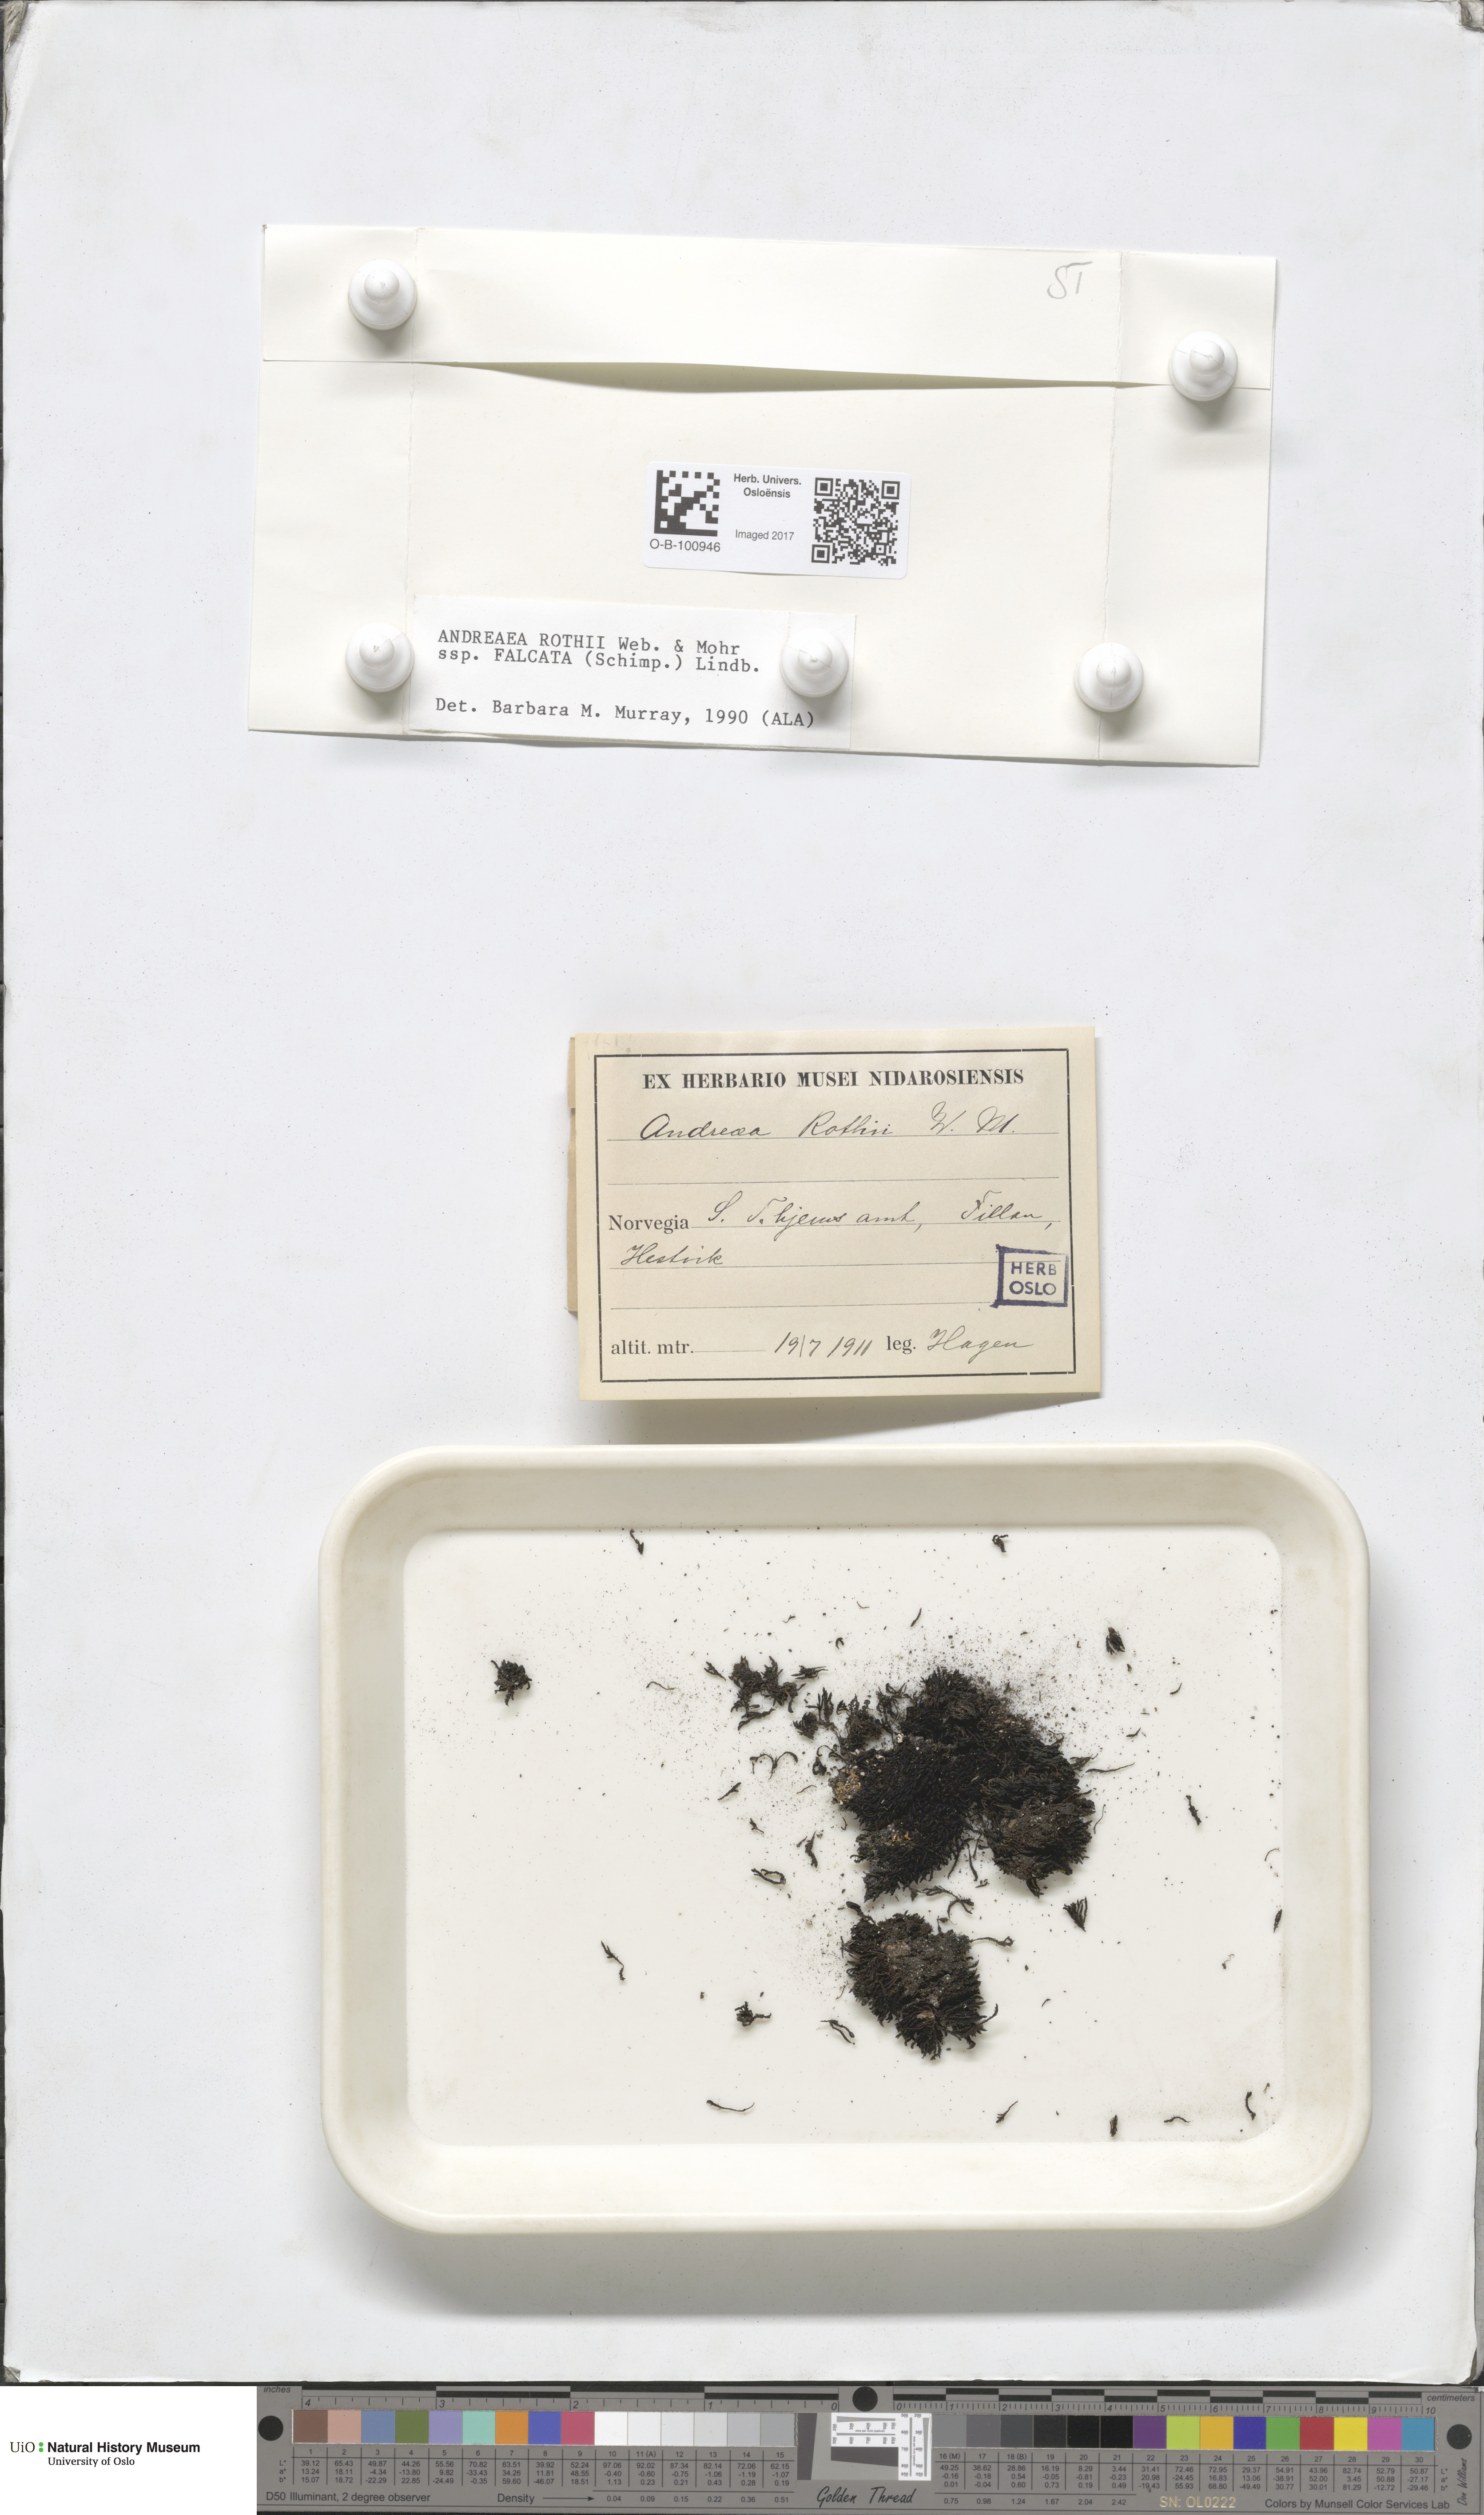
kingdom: Plantae
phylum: Bryophyta
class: Andreaeopsida
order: Andreaeales
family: Andreaeaceae
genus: Andreaea
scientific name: Andreaea rothii
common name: Dusky rock moss
